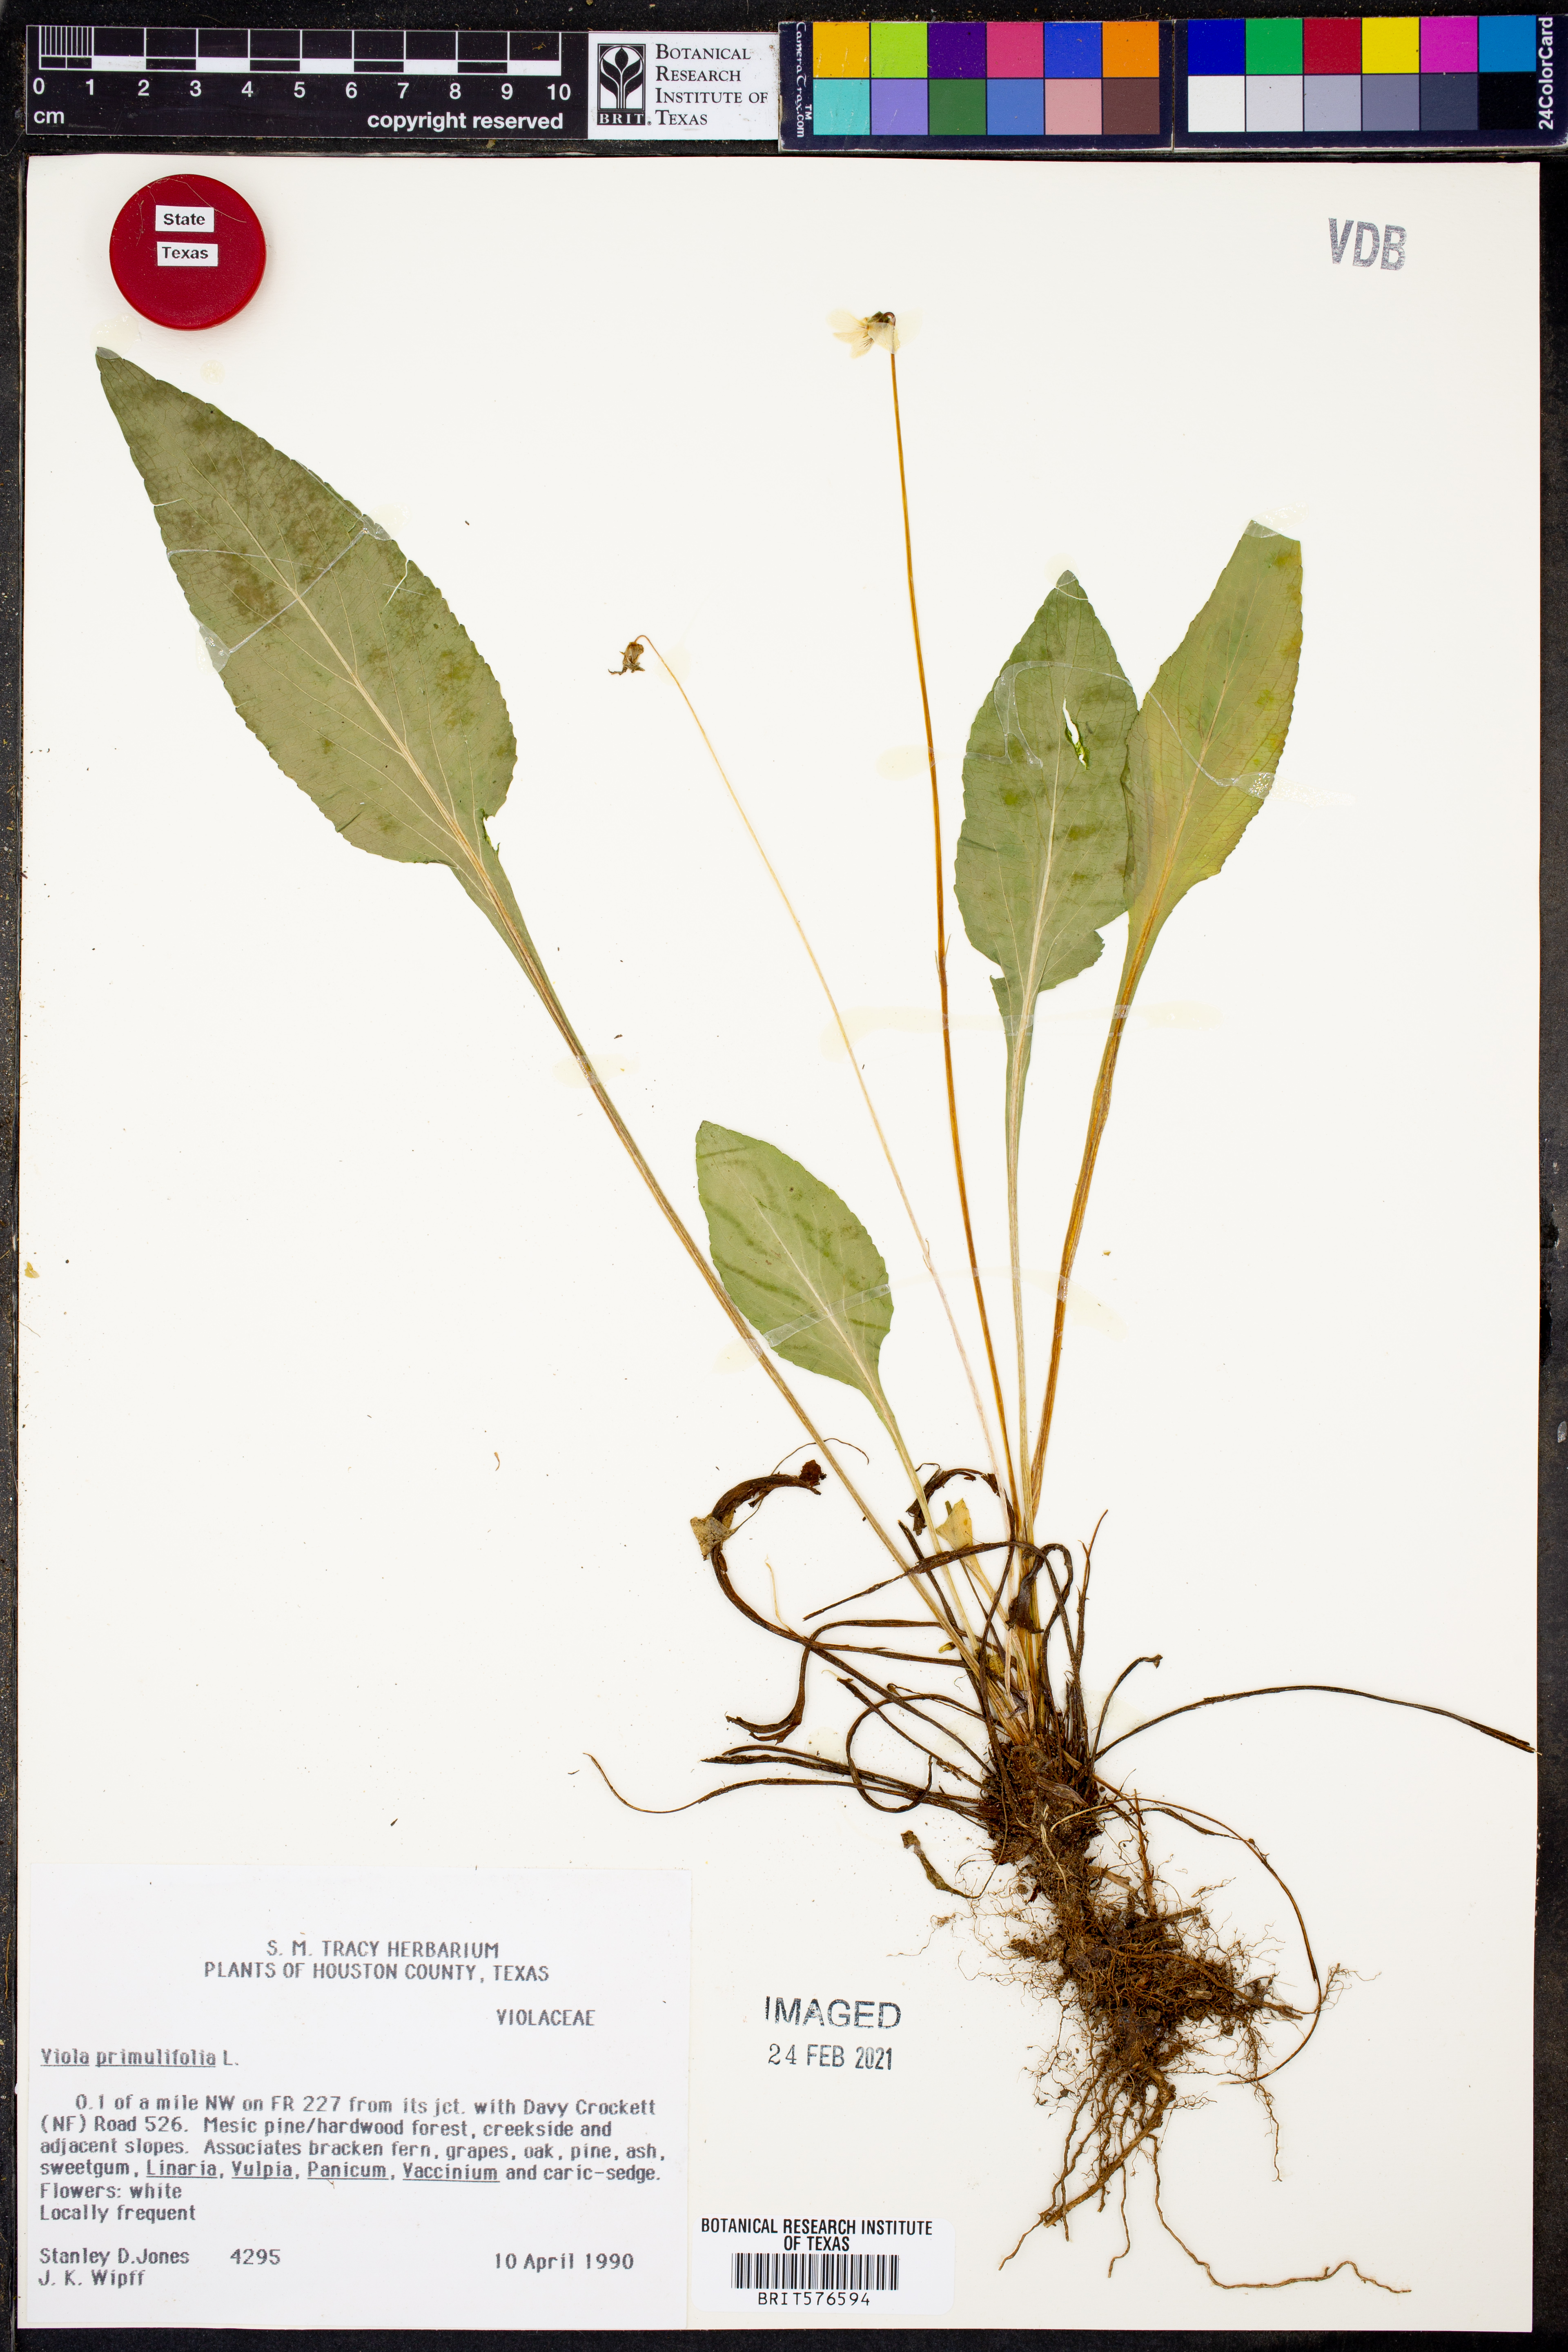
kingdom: Plantae
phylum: Tracheophyta
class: Magnoliopsida
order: Malpighiales
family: Violaceae
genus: Viola
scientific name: Viola primulifolia
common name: Primrose-leaf violet
